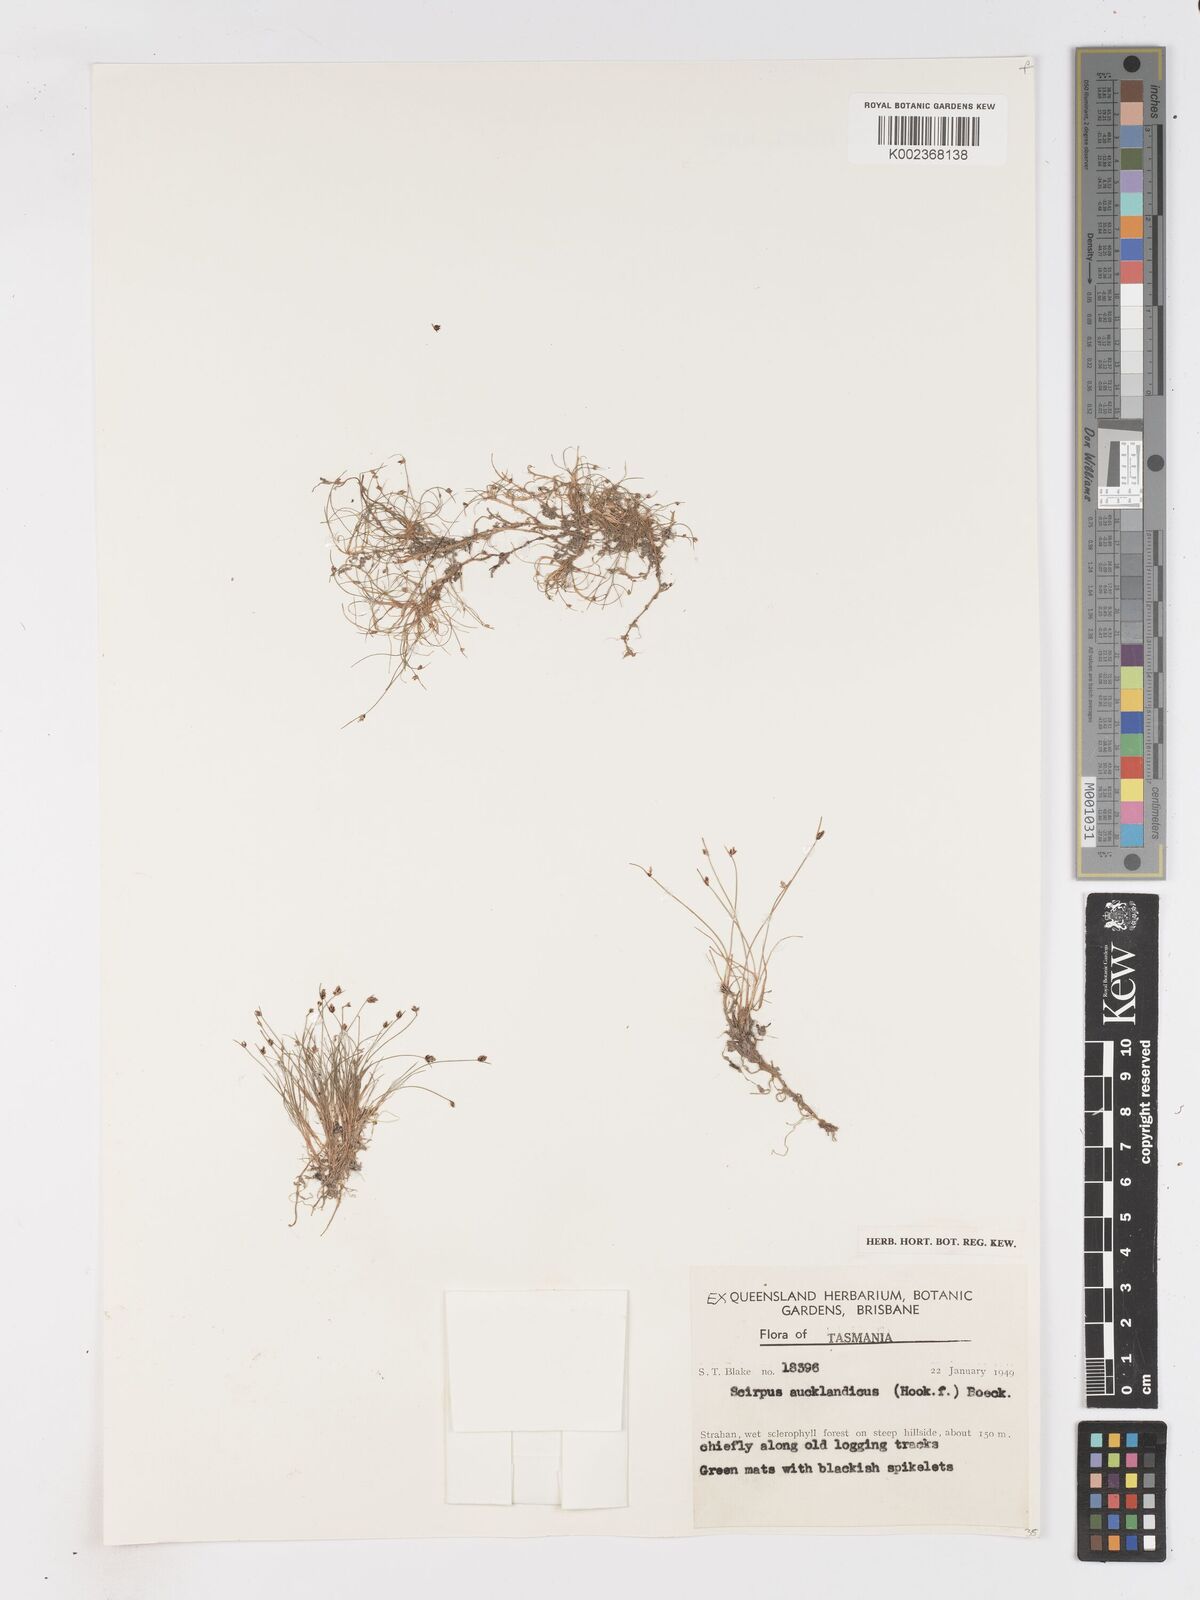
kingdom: Plantae
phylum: Tracheophyta
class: Liliopsida
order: Poales
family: Cyperaceae
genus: Isolepis
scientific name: Isolepis aucklandica
